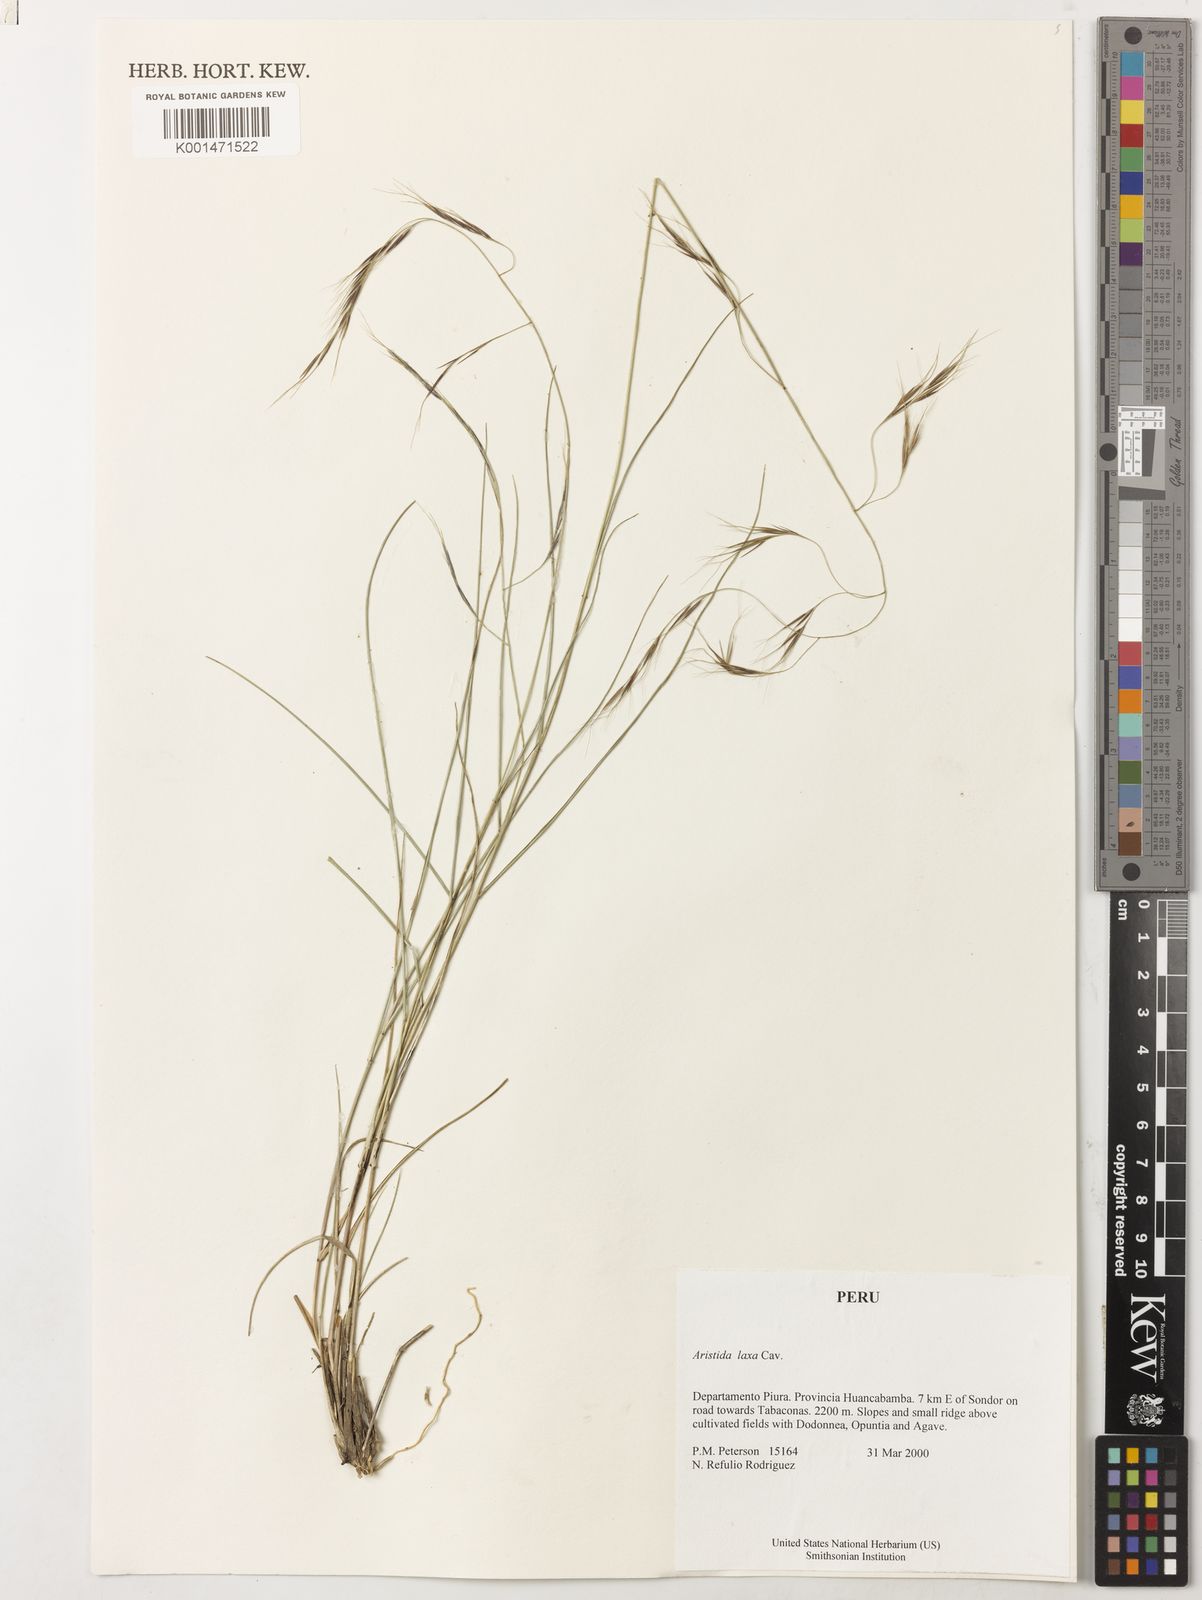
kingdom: Plantae
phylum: Tracheophyta
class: Liliopsida
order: Poales
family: Poaceae
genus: Aristida
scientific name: Aristida laxa
